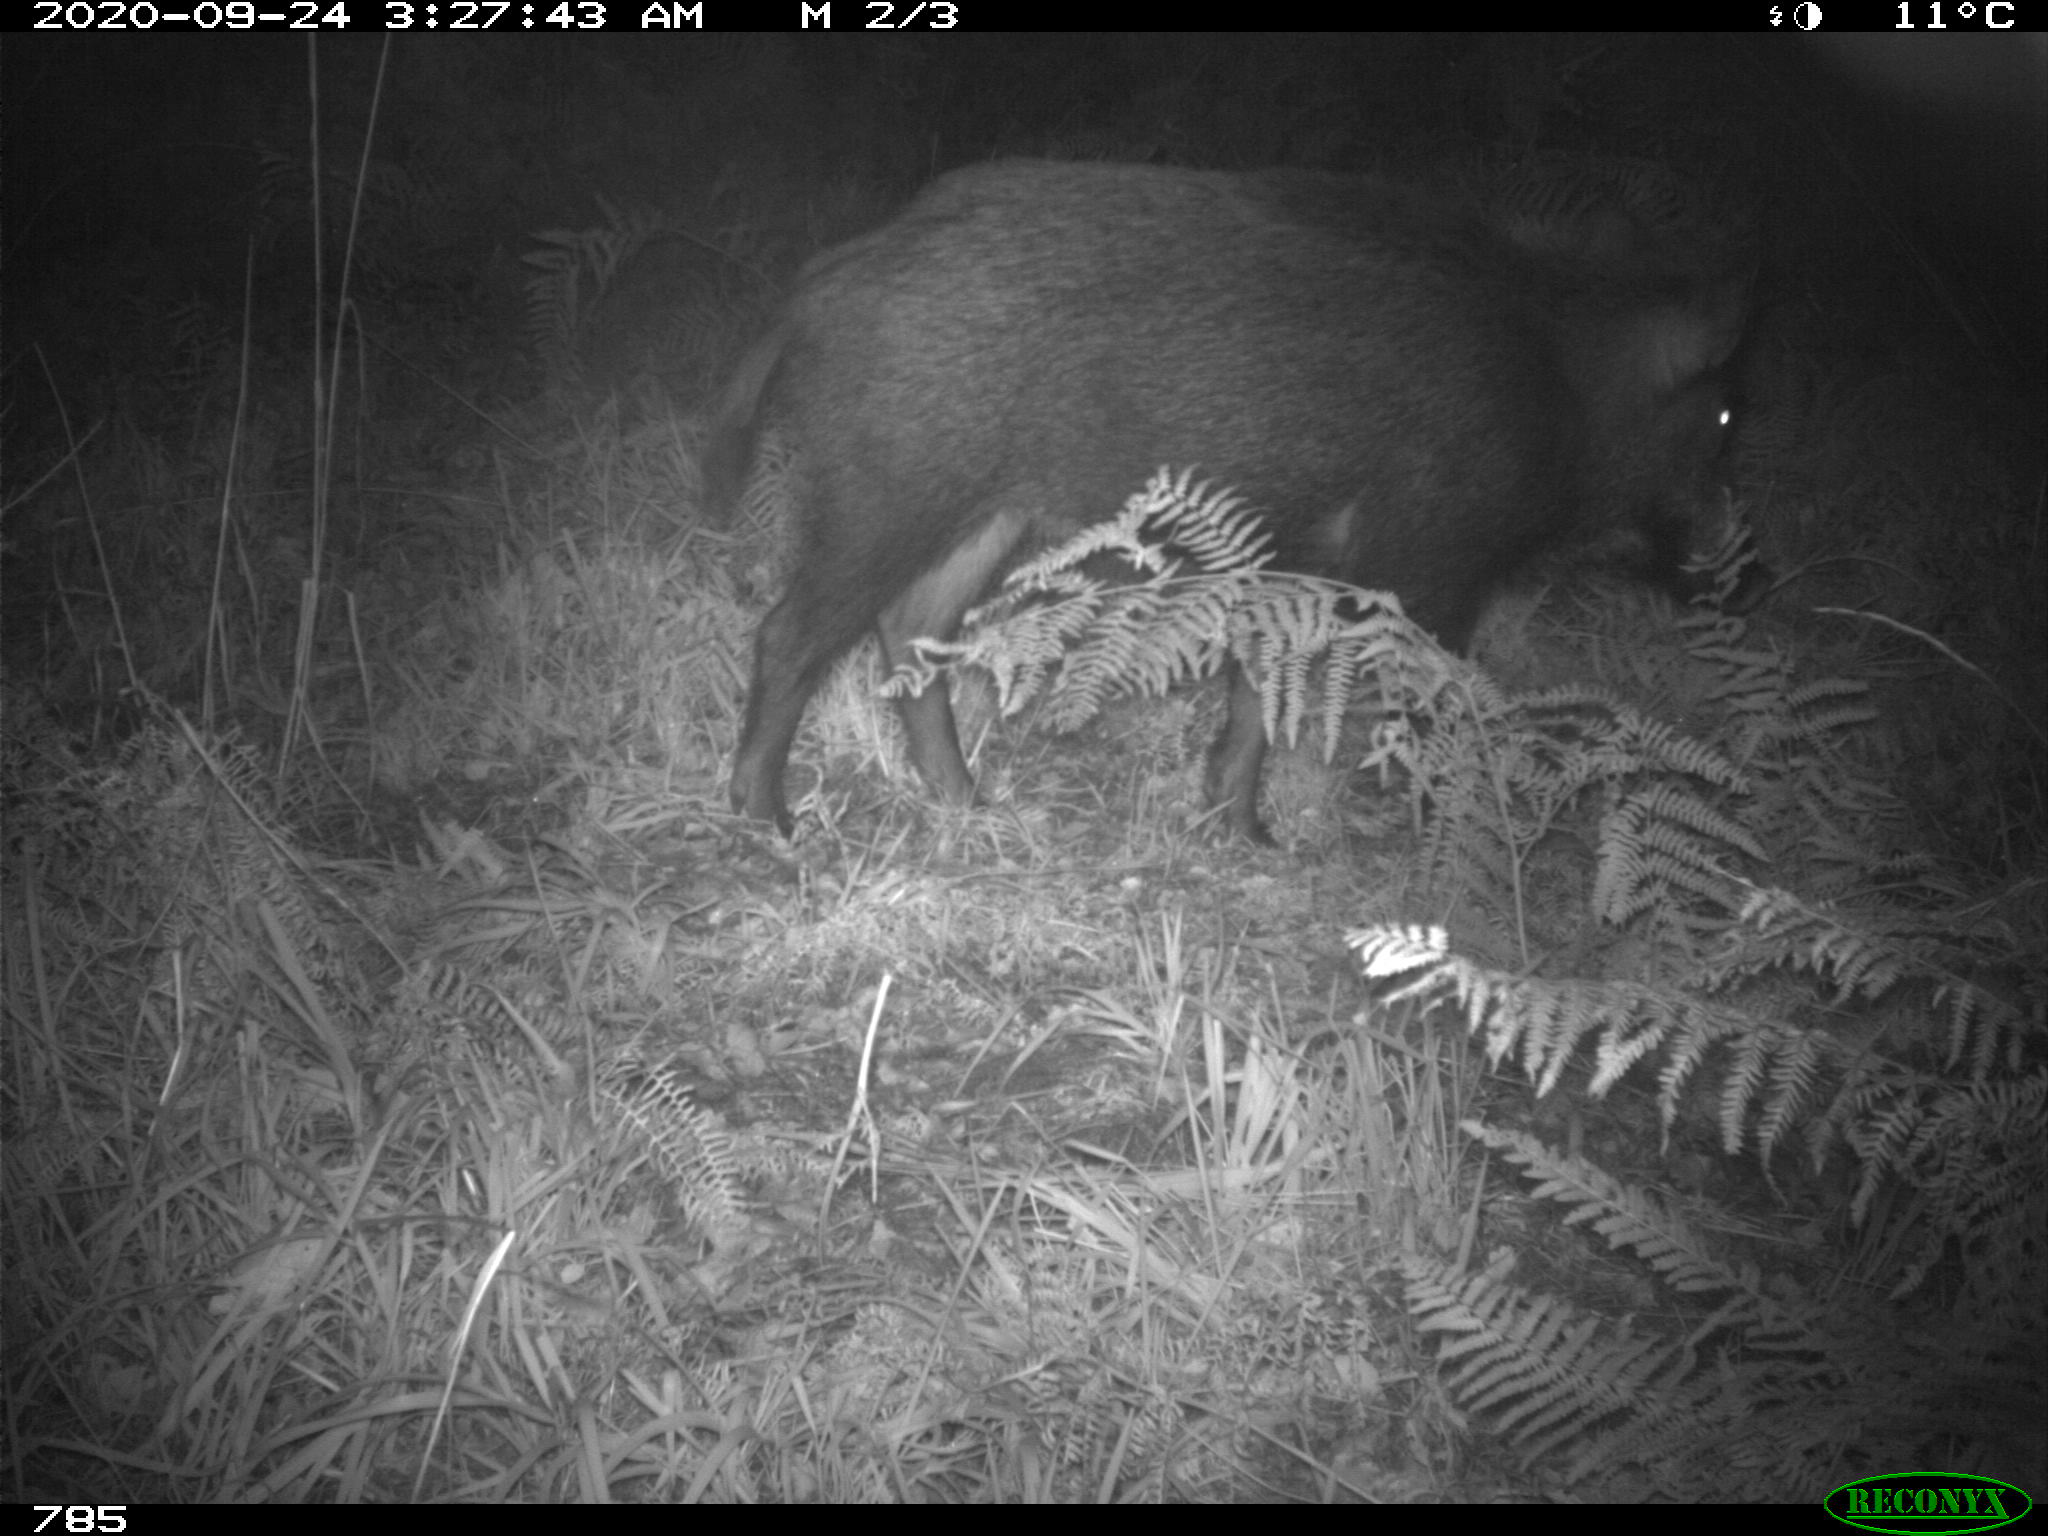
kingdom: Animalia
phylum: Chordata
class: Mammalia
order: Artiodactyla
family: Suidae
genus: Sus
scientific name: Sus scrofa
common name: Wild boar
